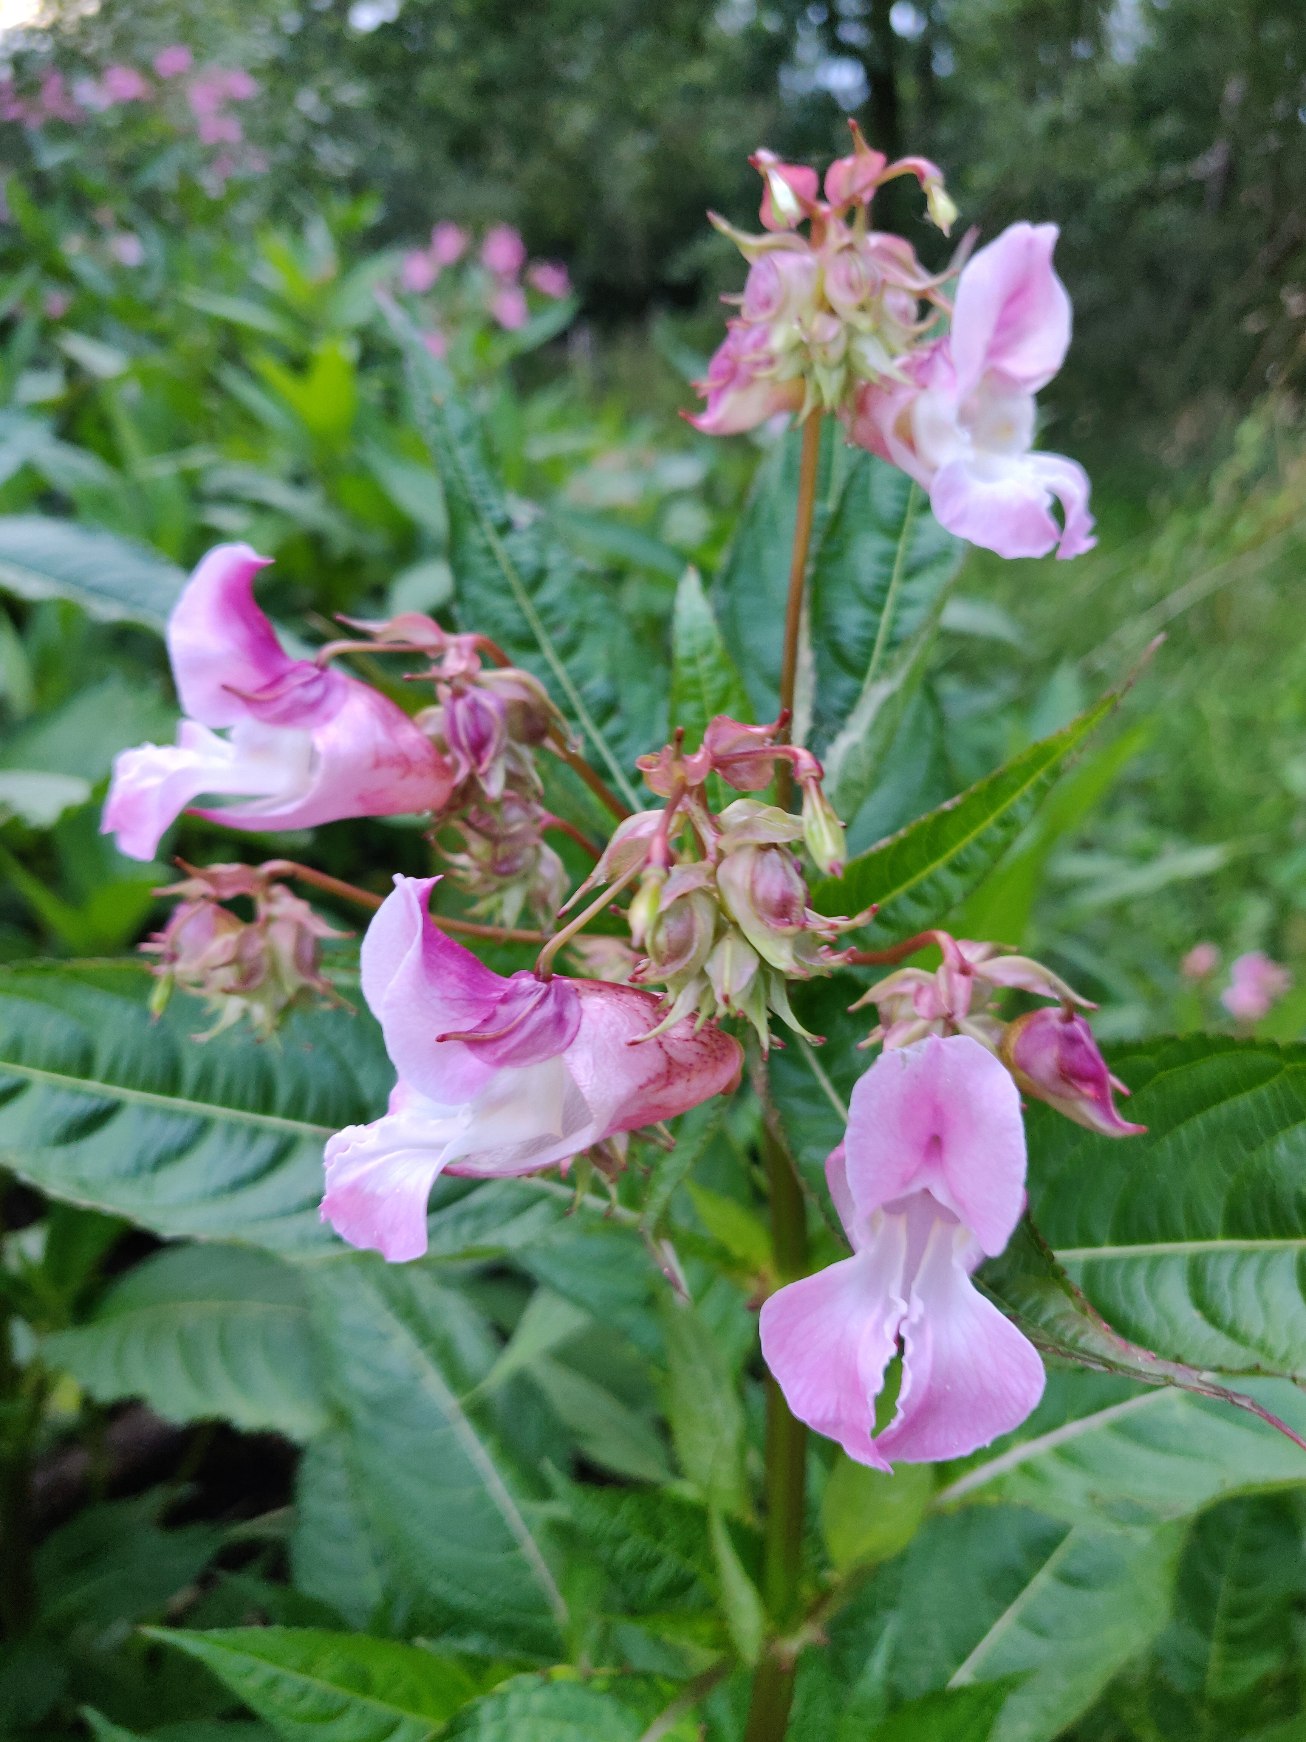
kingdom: Plantae
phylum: Tracheophyta
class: Magnoliopsida
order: Ericales
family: Balsaminaceae
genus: Impatiens
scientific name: Impatiens glandulifera
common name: Kæmpe-balsamin
